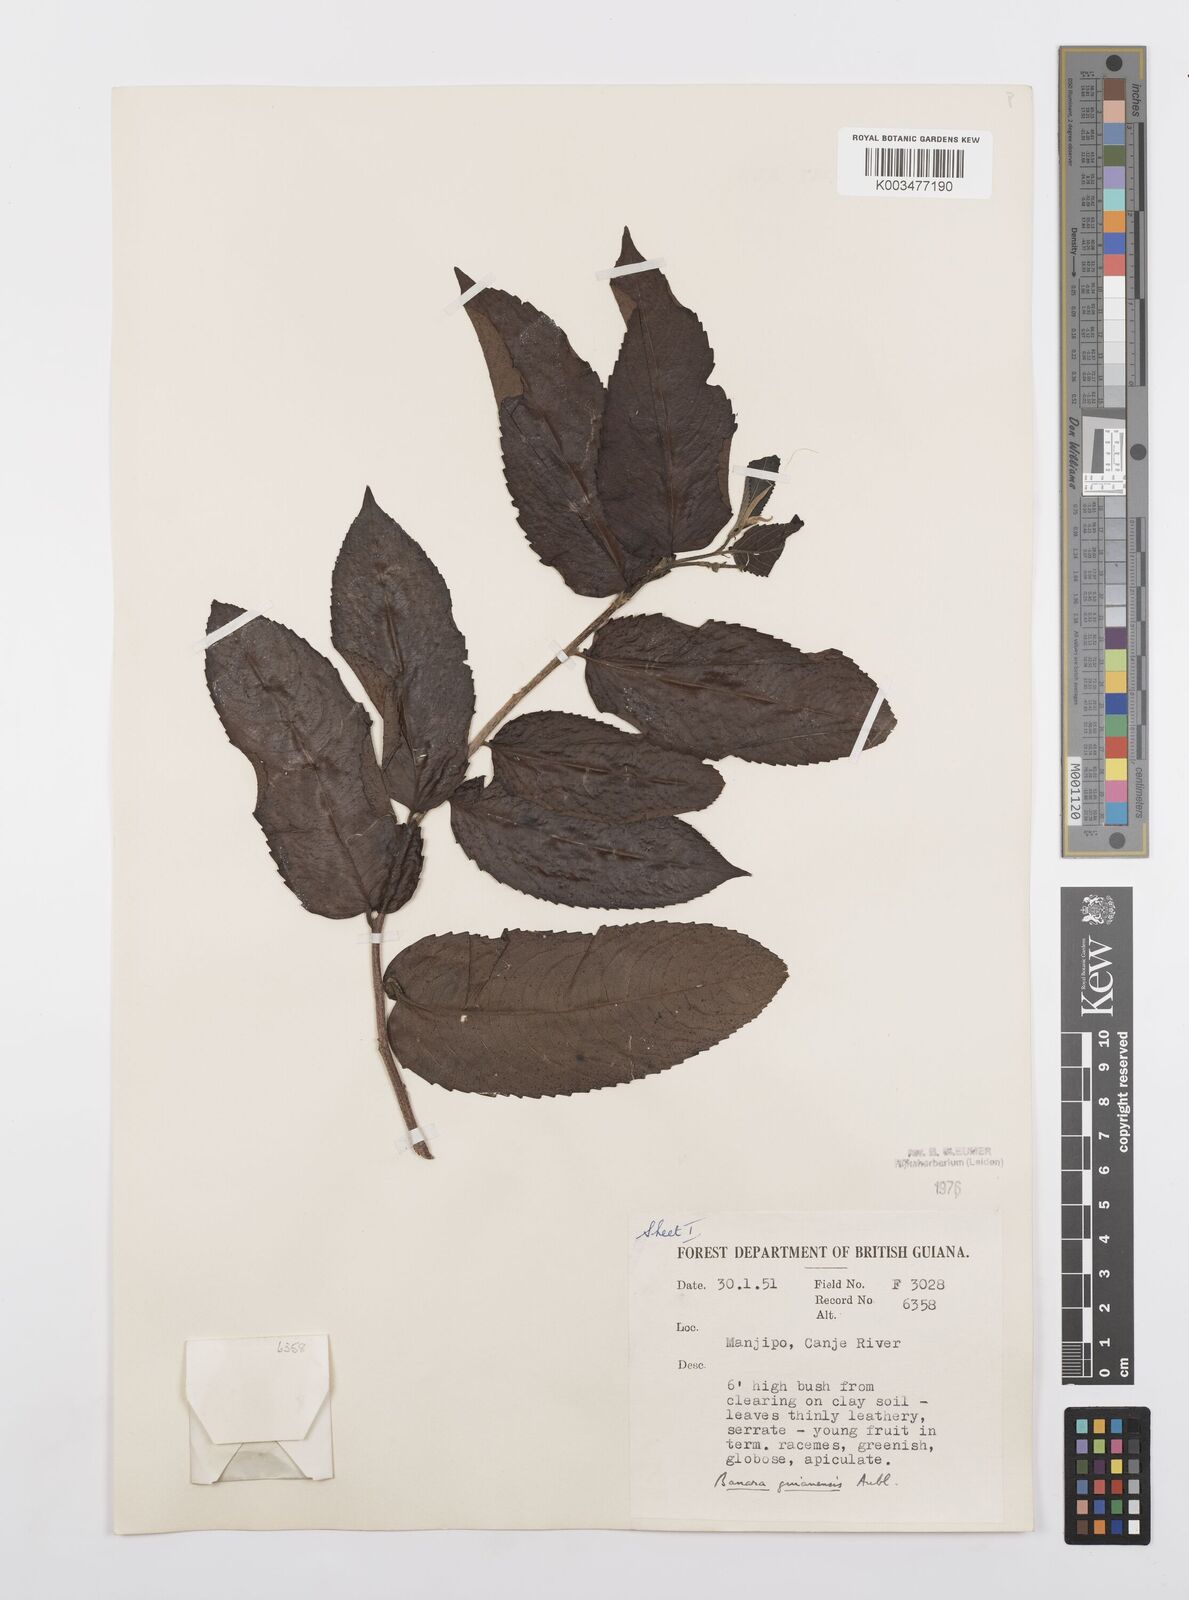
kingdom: Plantae
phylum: Tracheophyta
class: Magnoliopsida
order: Malpighiales
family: Salicaceae
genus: Banara
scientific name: Banara guianensis
